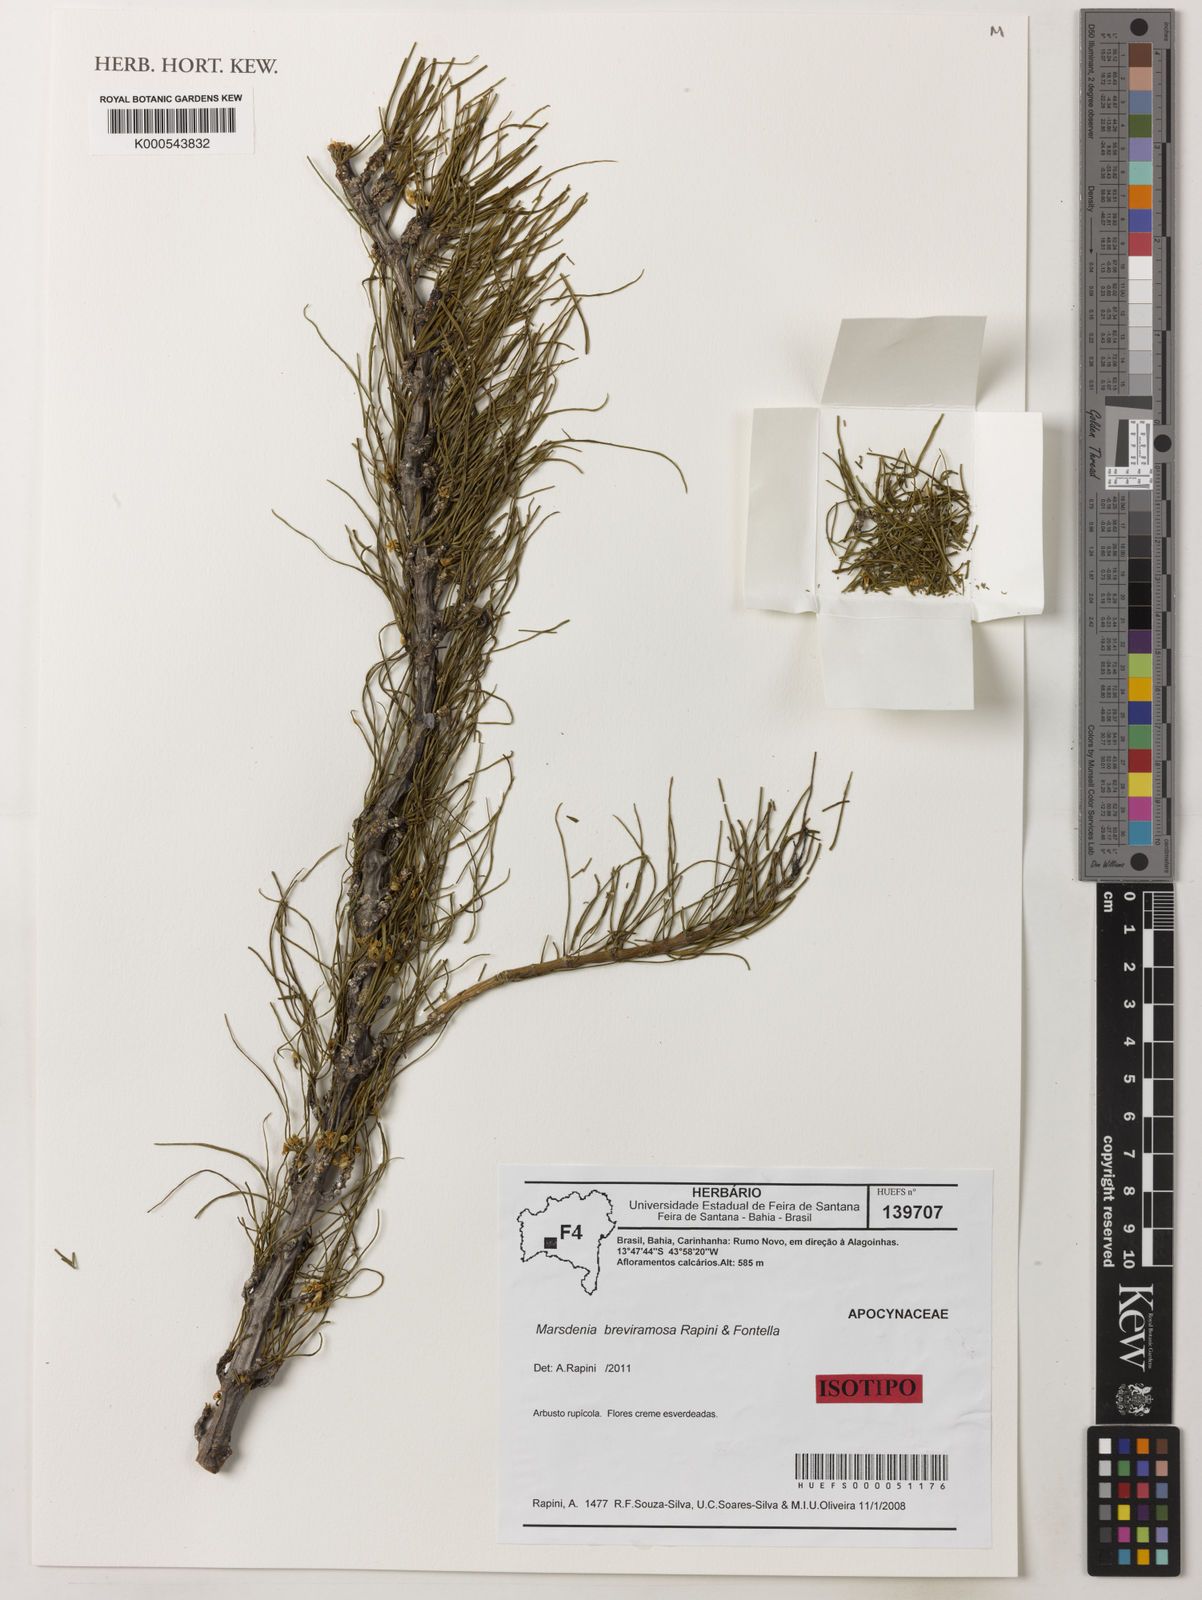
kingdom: Plantae
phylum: Tracheophyta
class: Magnoliopsida
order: Gentianales
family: Apocynaceae
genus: Ruehssia
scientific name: Ruehssia breviramosa
